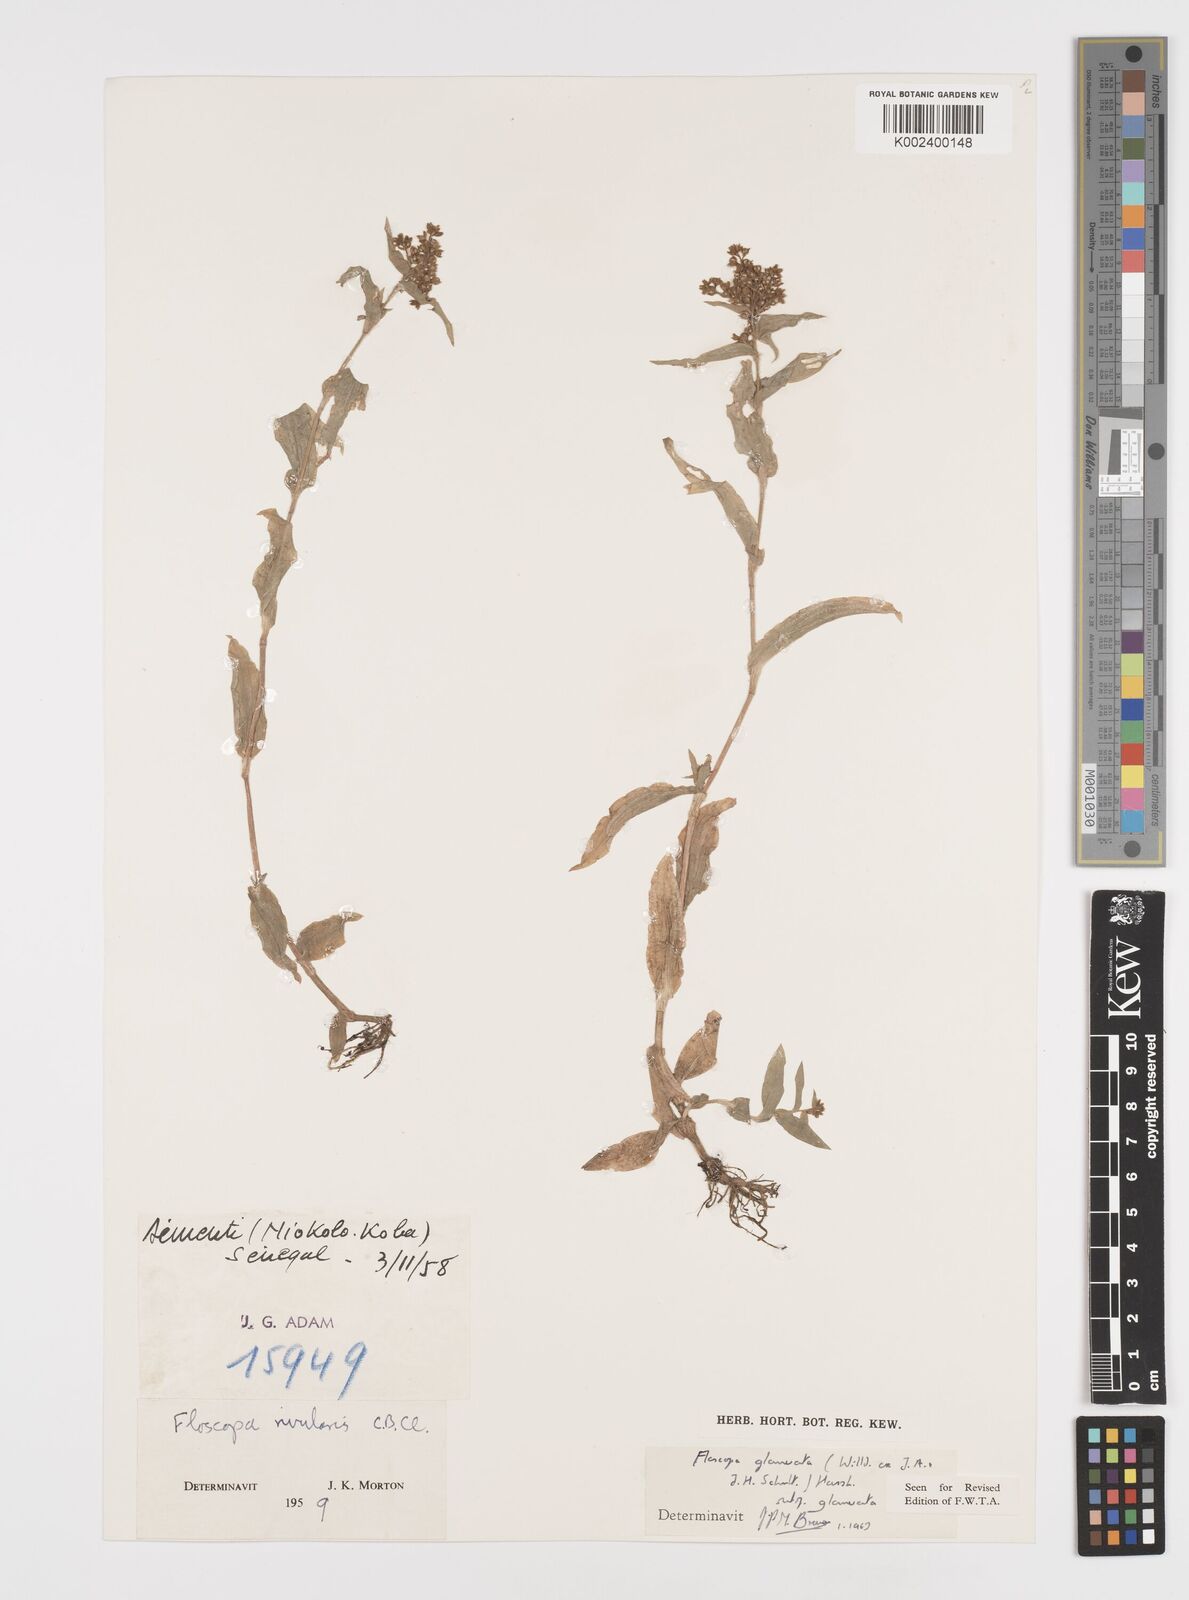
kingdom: Plantae
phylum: Tracheophyta
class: Liliopsida
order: Commelinales
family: Commelinaceae
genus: Floscopa
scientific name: Floscopa glomerata
